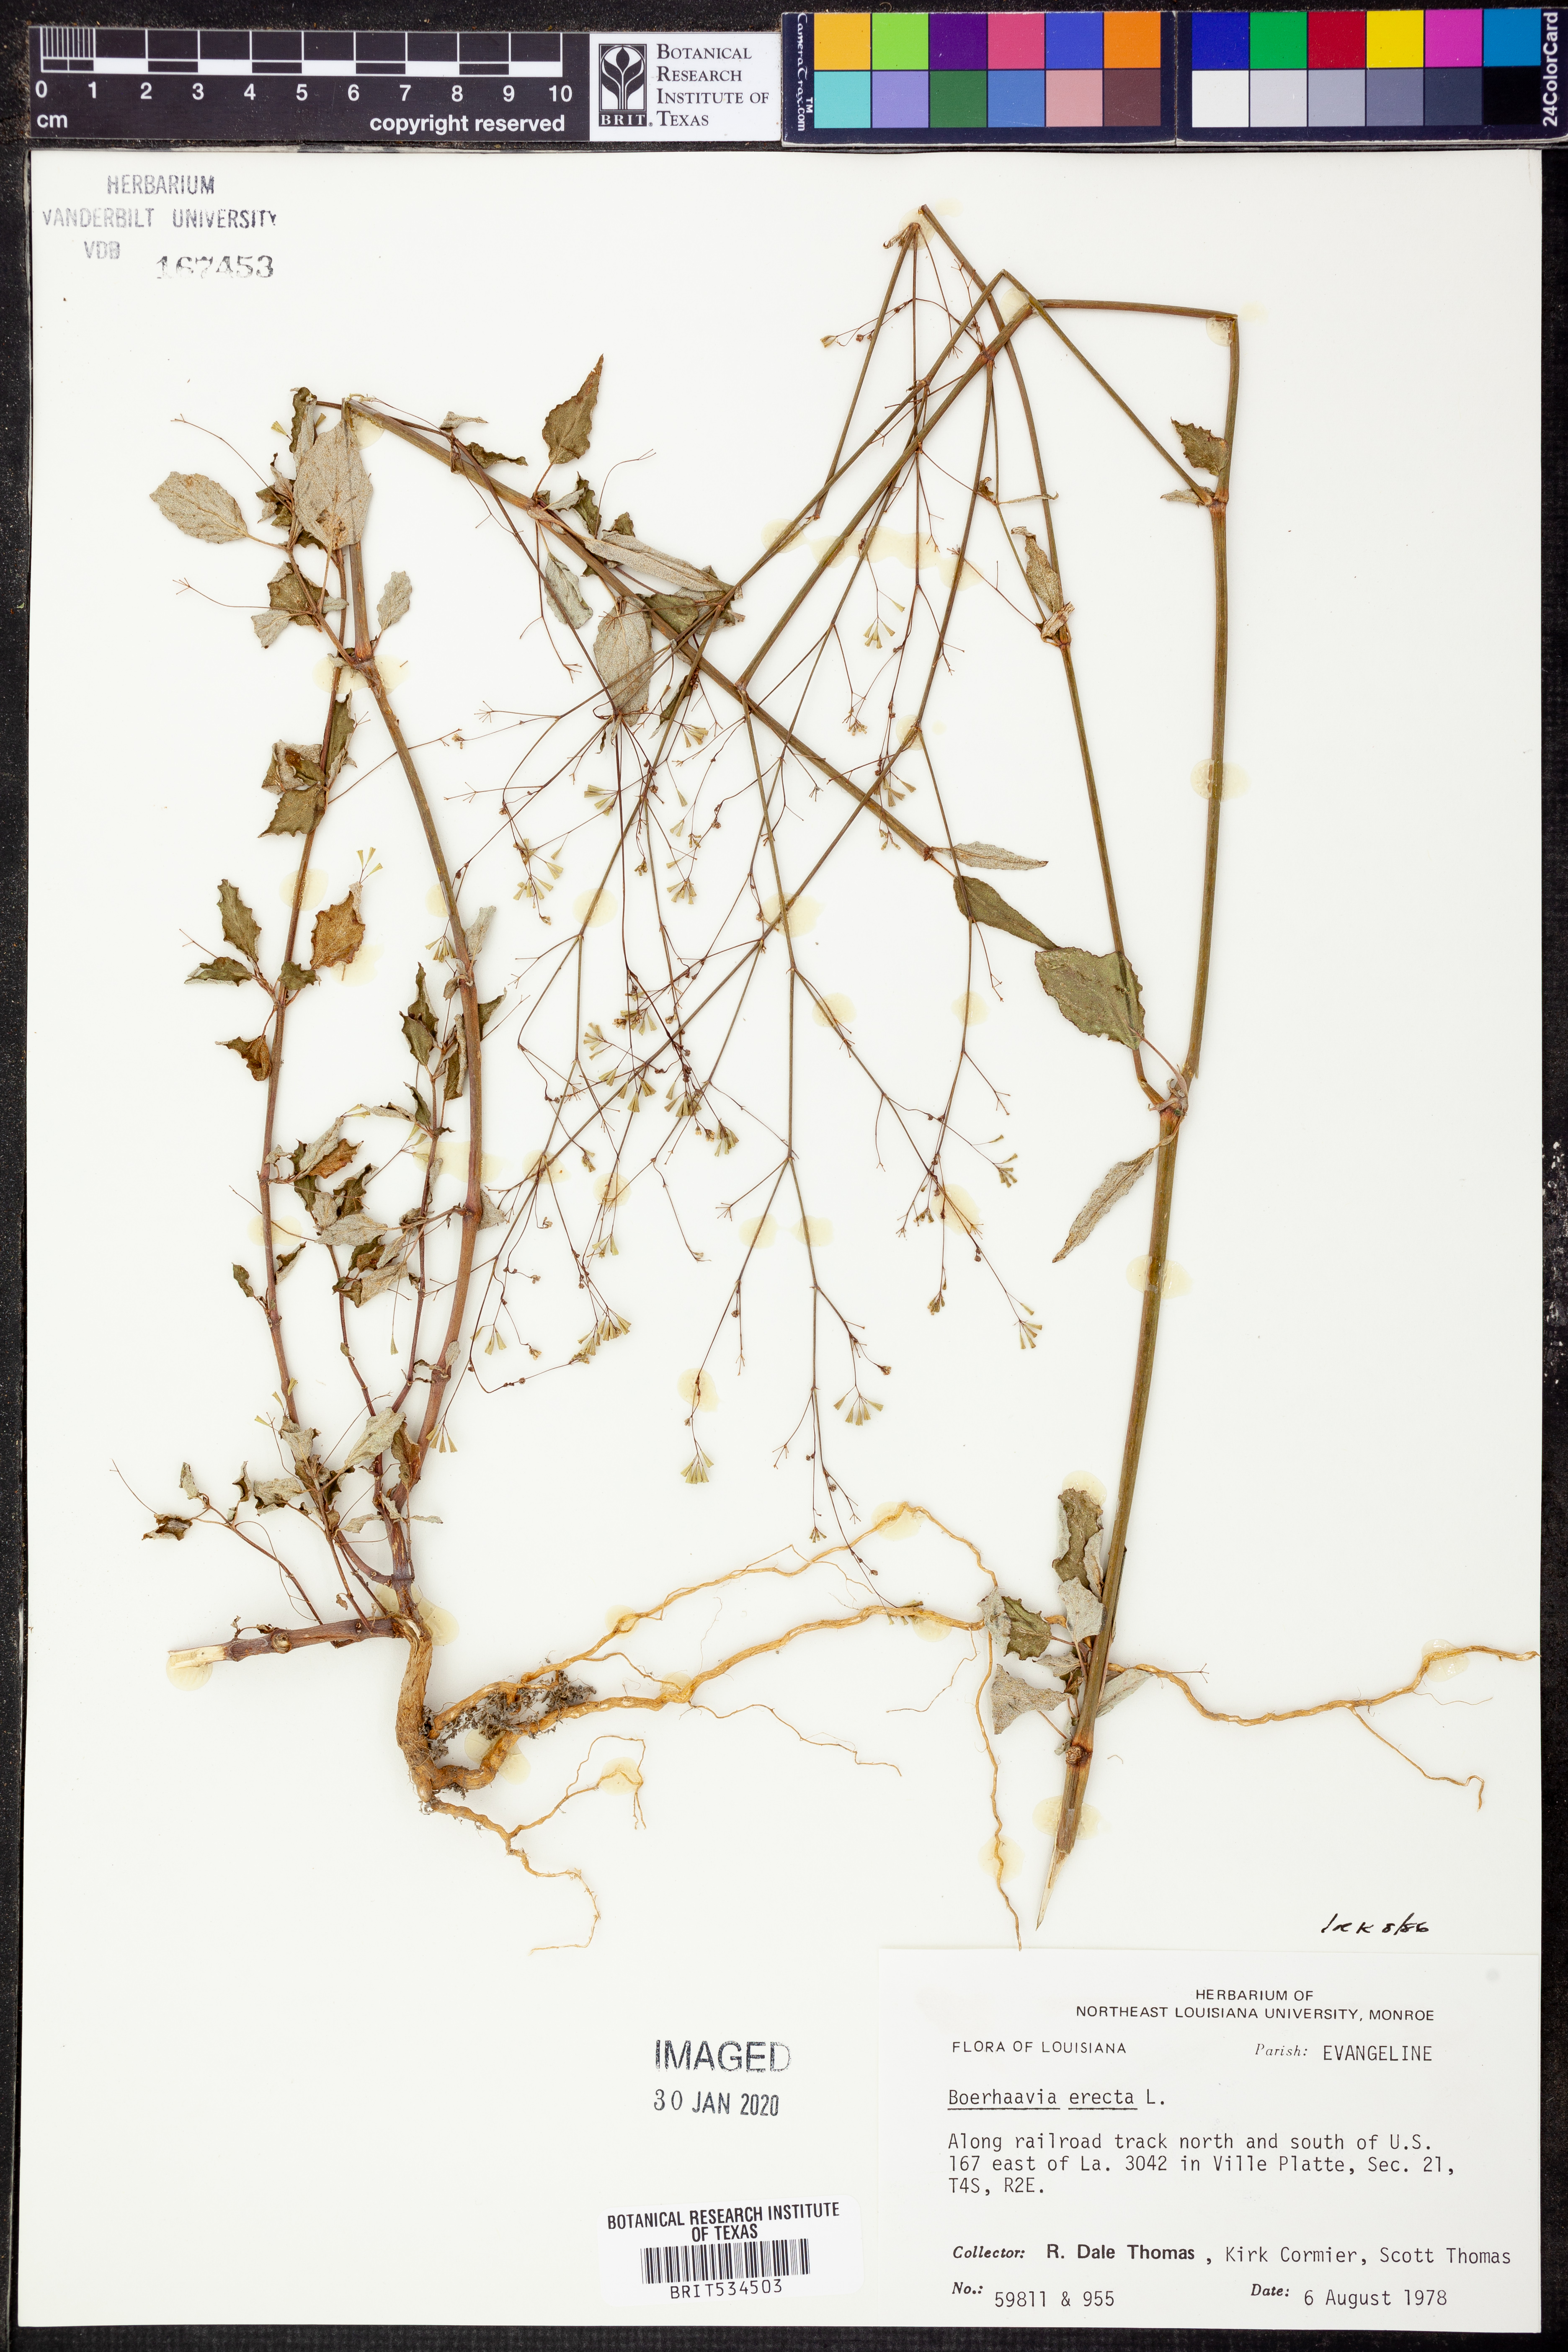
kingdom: Plantae
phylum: Tracheophyta
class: Magnoliopsida
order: Caryophyllales
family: Nyctaginaceae
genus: Boerhavia
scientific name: Boerhavia erecta
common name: Erect spiderling
